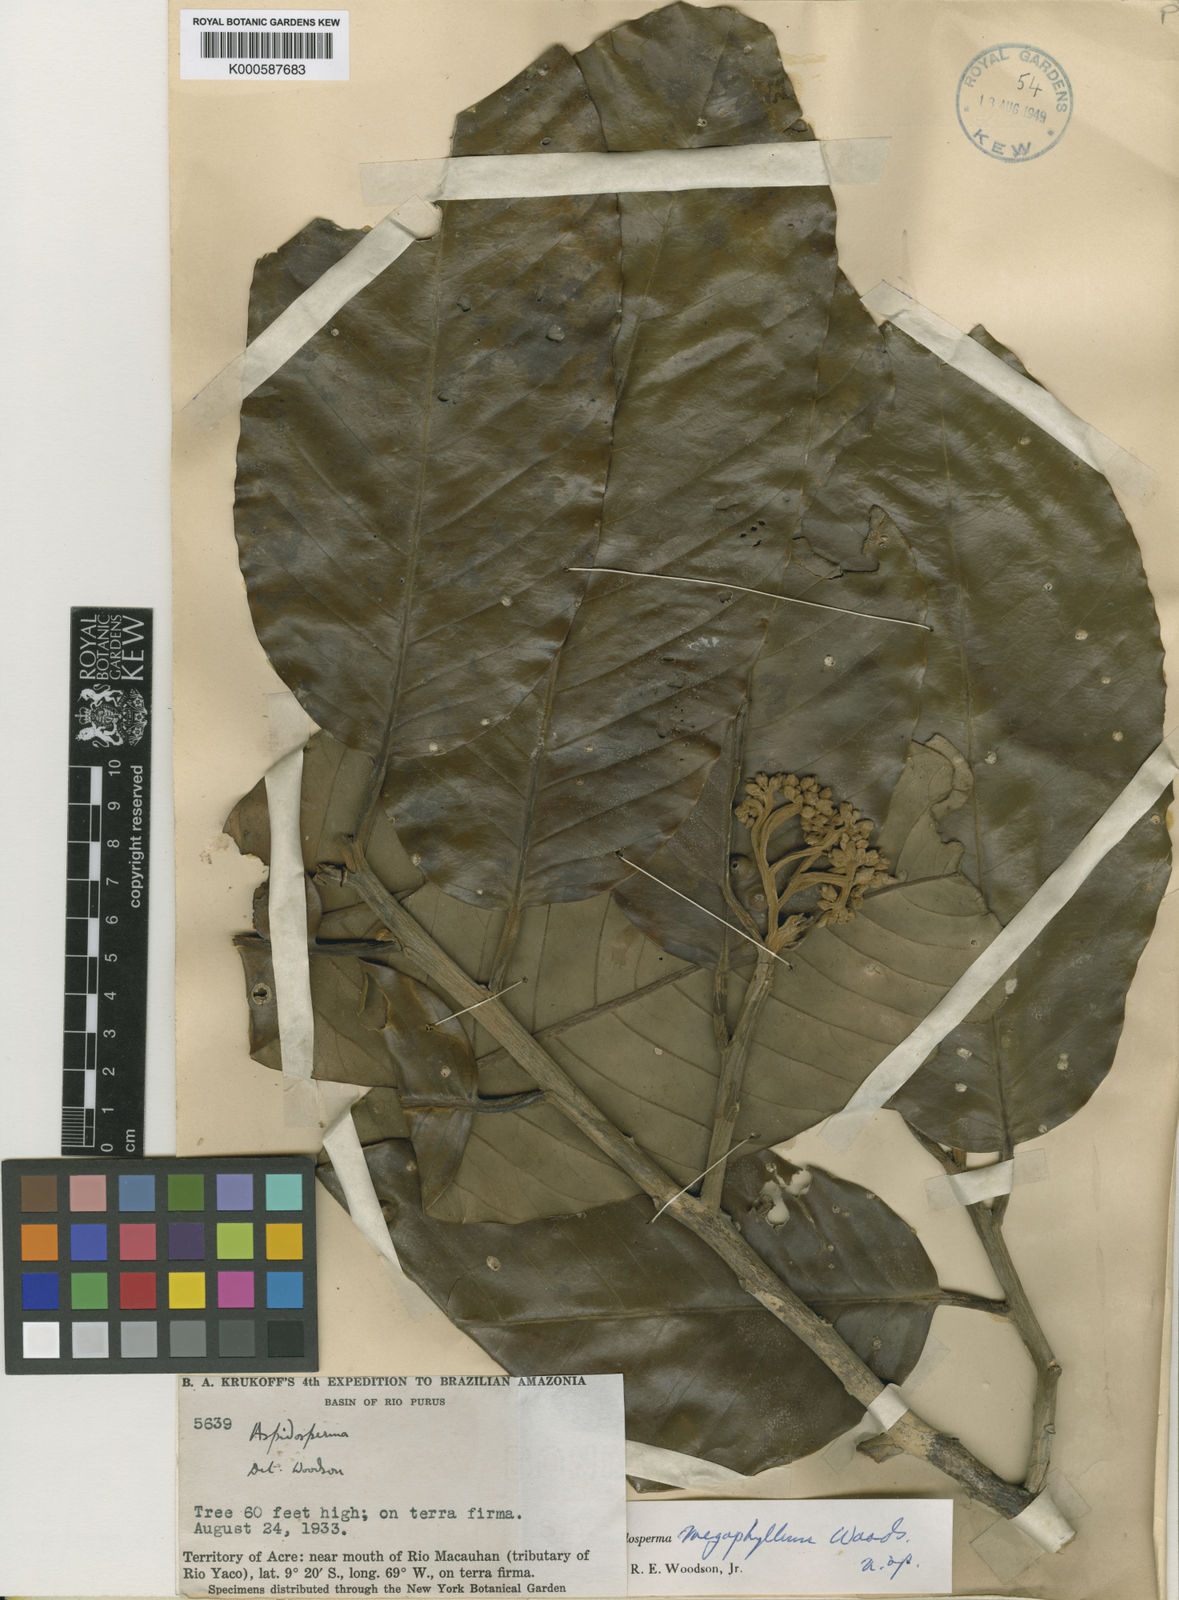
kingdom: Plantae
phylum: Tracheophyta
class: Magnoliopsida
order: Gentianales
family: Apocynaceae
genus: Aspidosperma
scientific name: Aspidosperma megaphyllum
